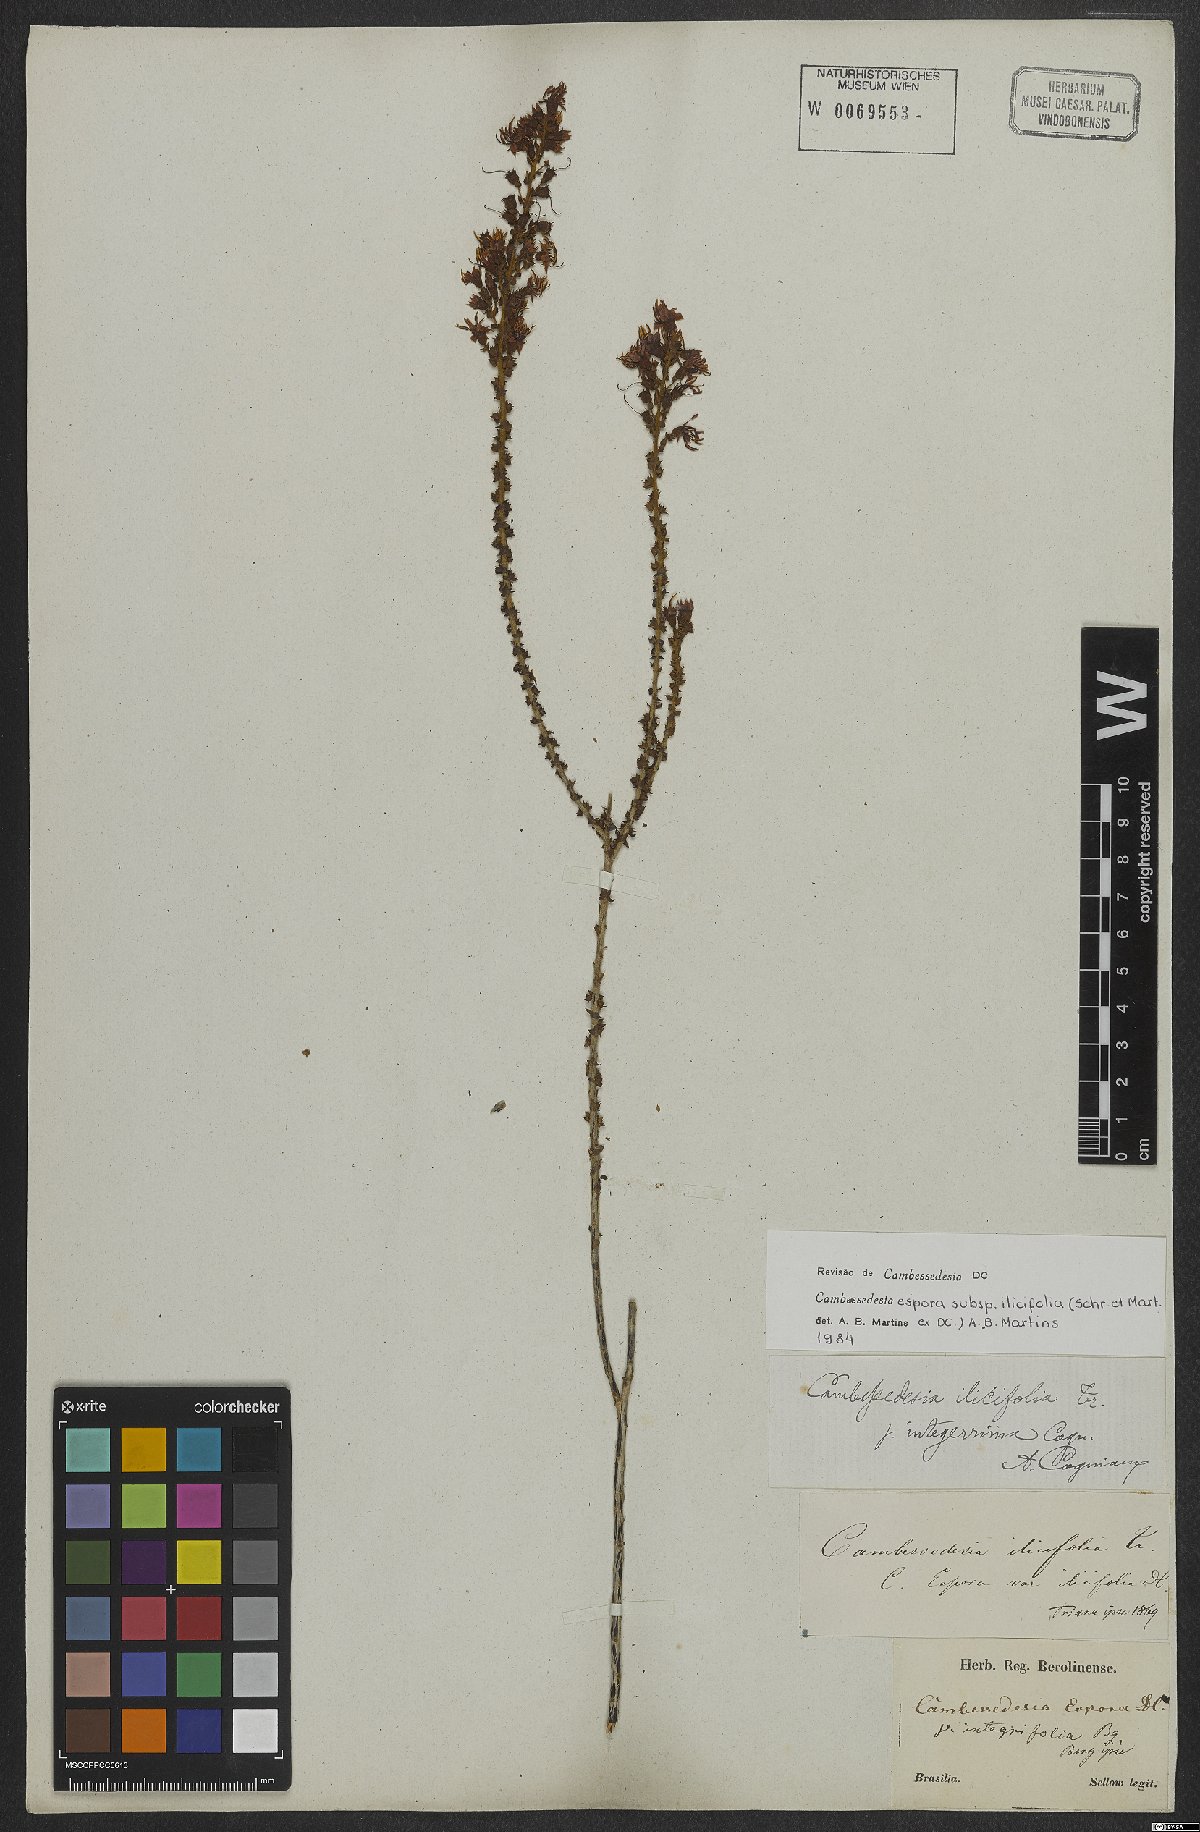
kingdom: Plantae
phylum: Tracheophyta
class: Magnoliopsida
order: Myrtales
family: Melastomataceae
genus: Cambessedesia
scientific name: Cambessedesia espora
